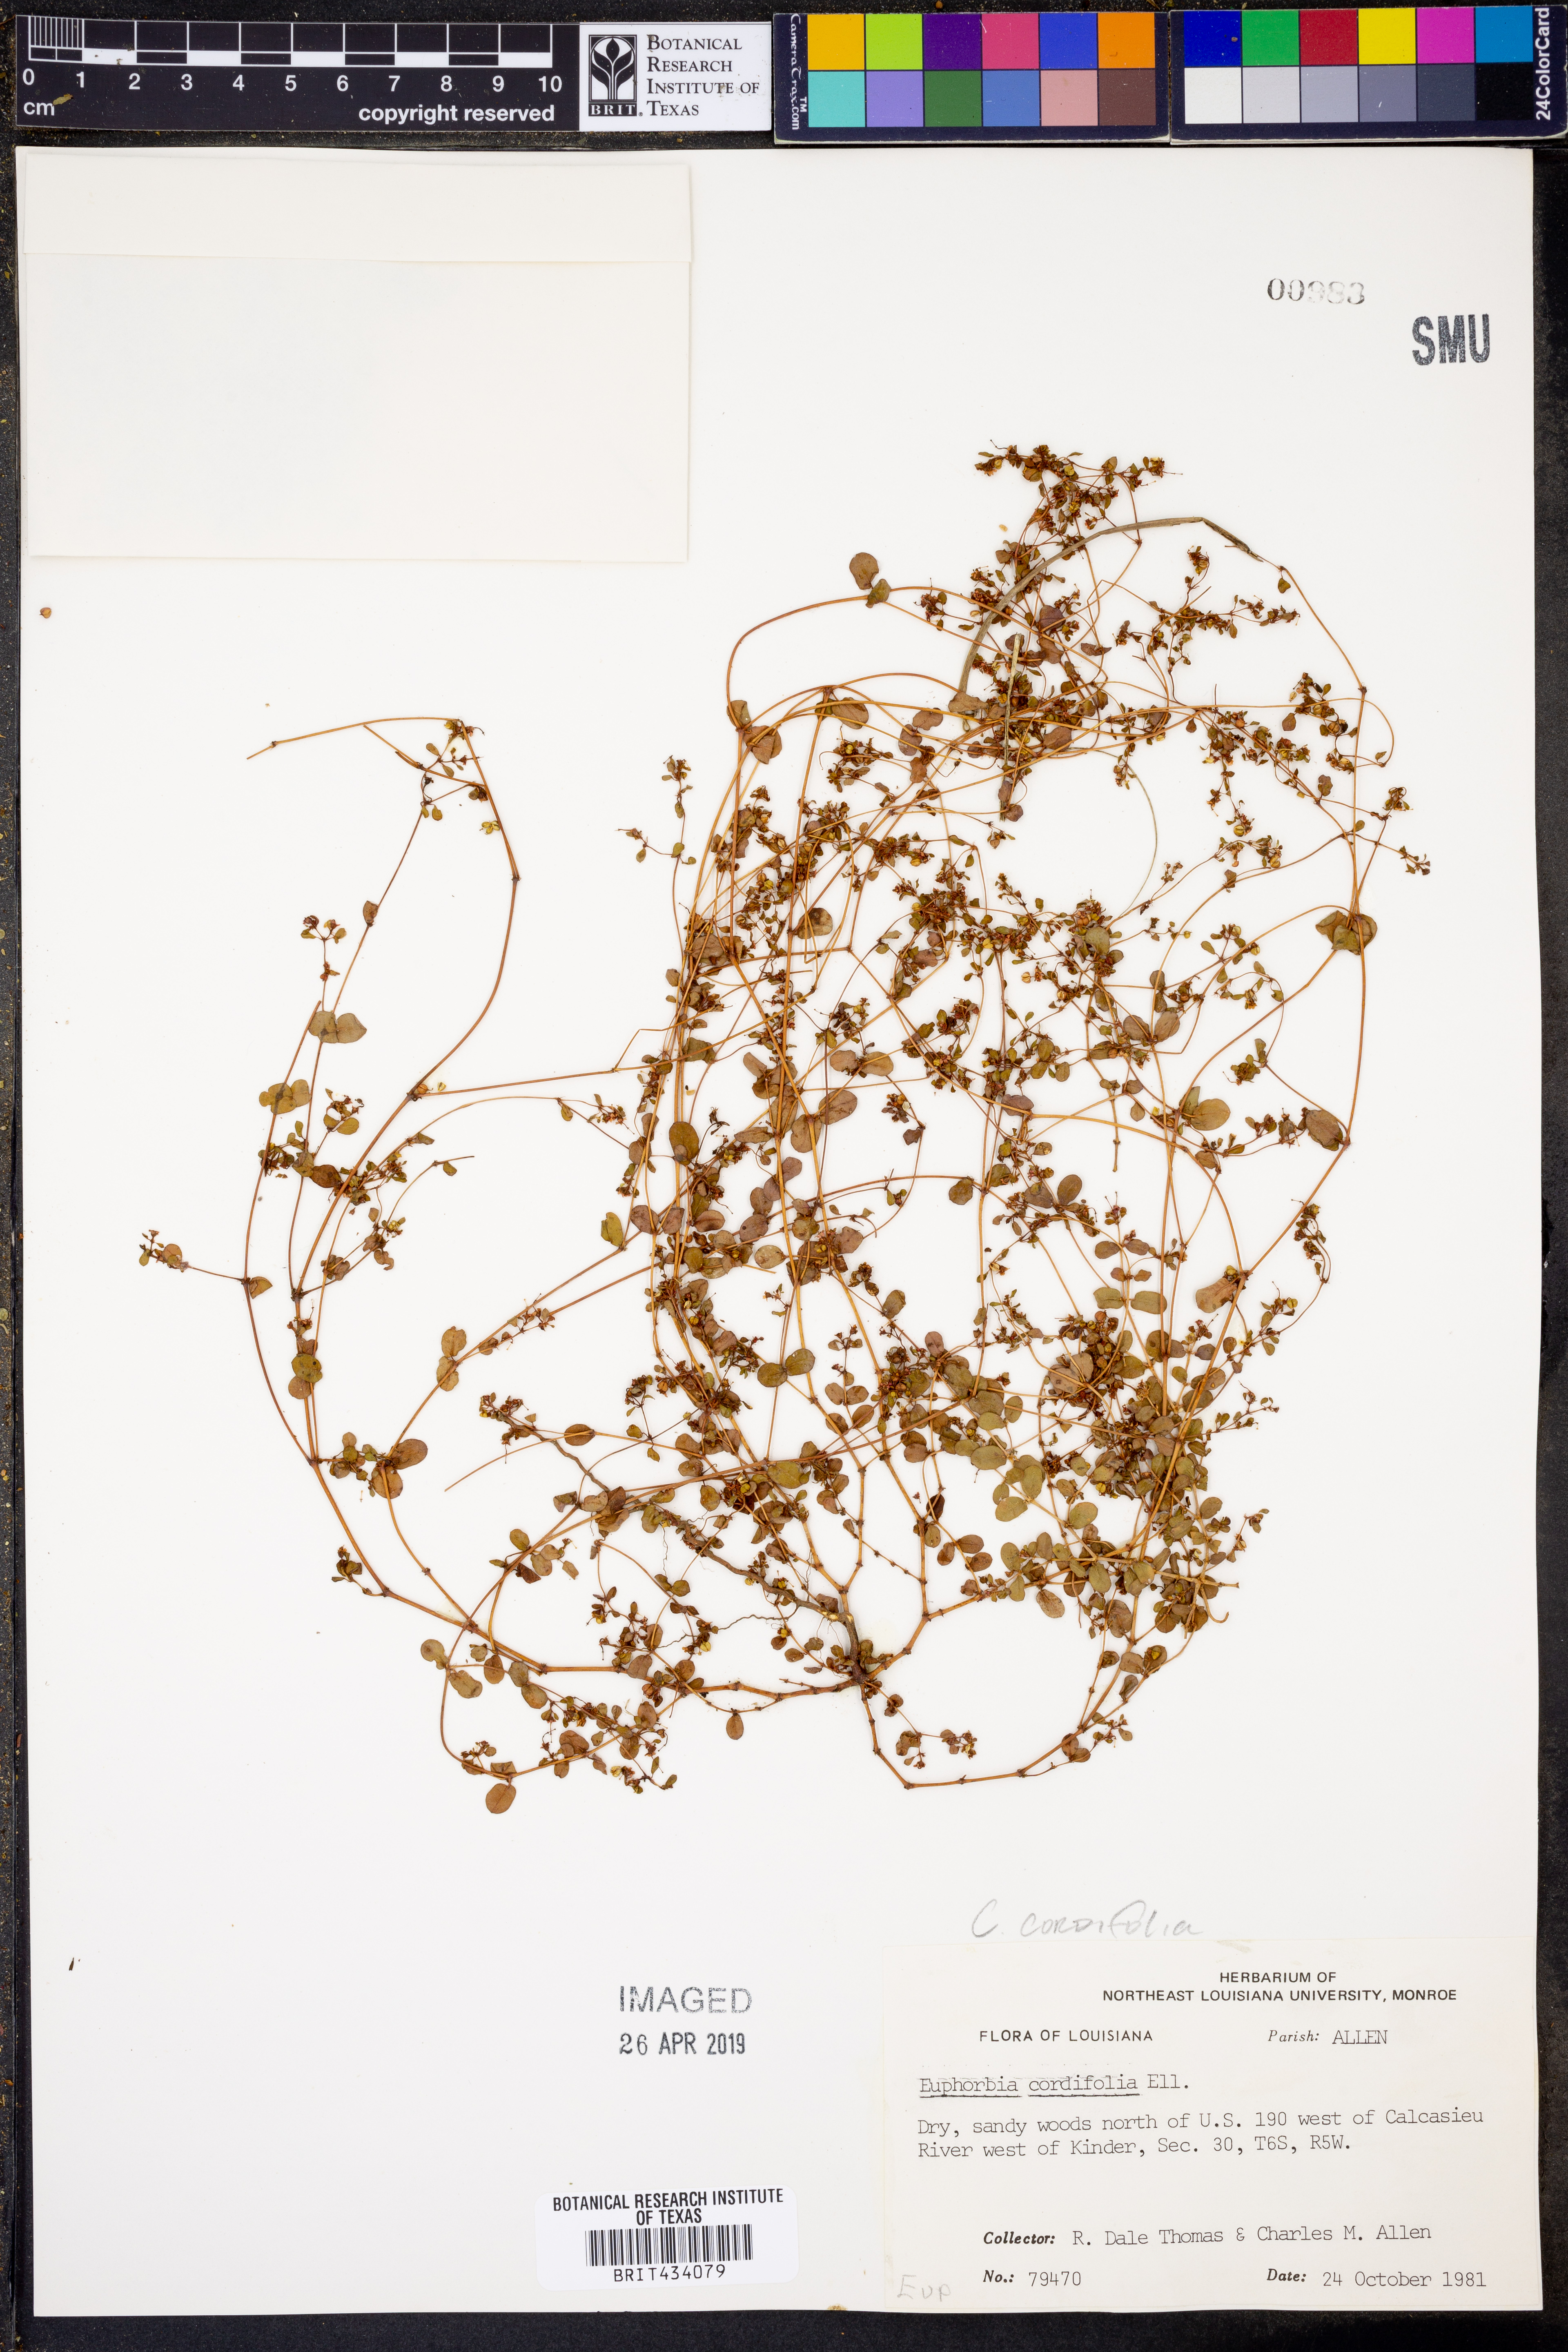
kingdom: Plantae
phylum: Tracheophyta
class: Magnoliopsida
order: Malpighiales
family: Euphorbiaceae
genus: Euphorbia
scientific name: Euphorbia cordifolia
